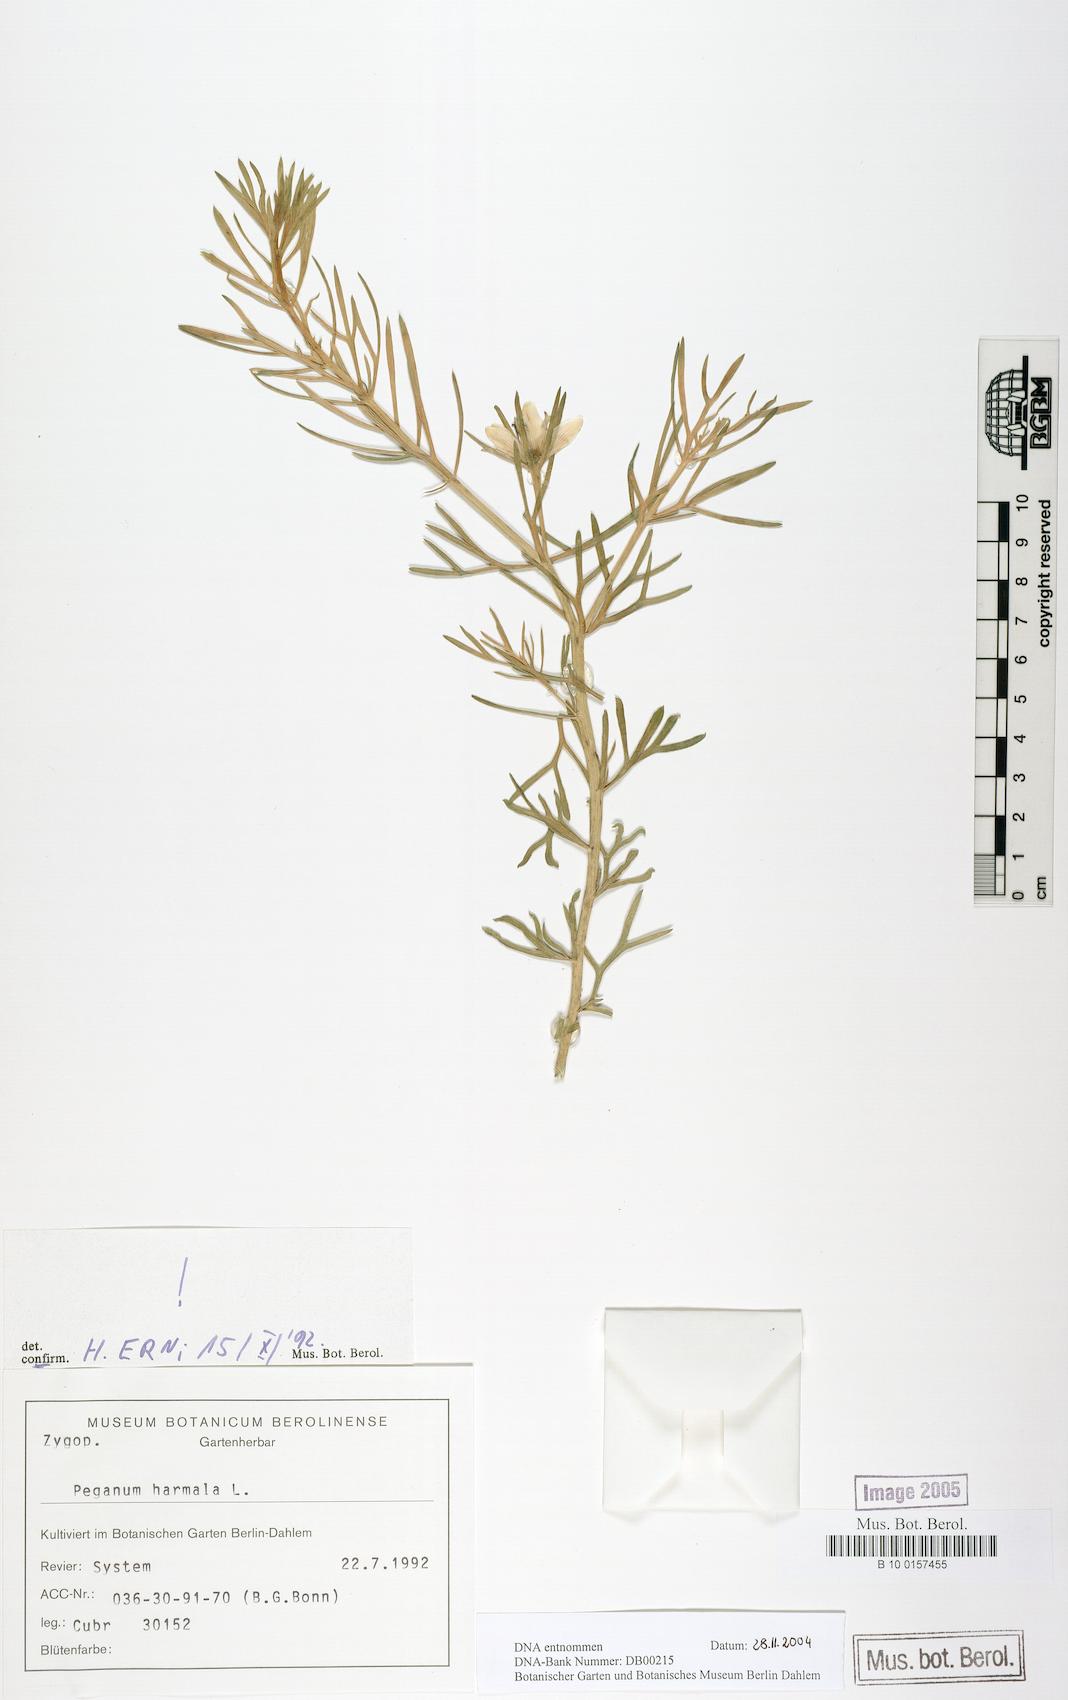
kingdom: Plantae
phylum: Tracheophyta
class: Magnoliopsida
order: Sapindales
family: Tetradiclidaceae
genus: Peganum
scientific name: Peganum harmala
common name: Harmal peganum
